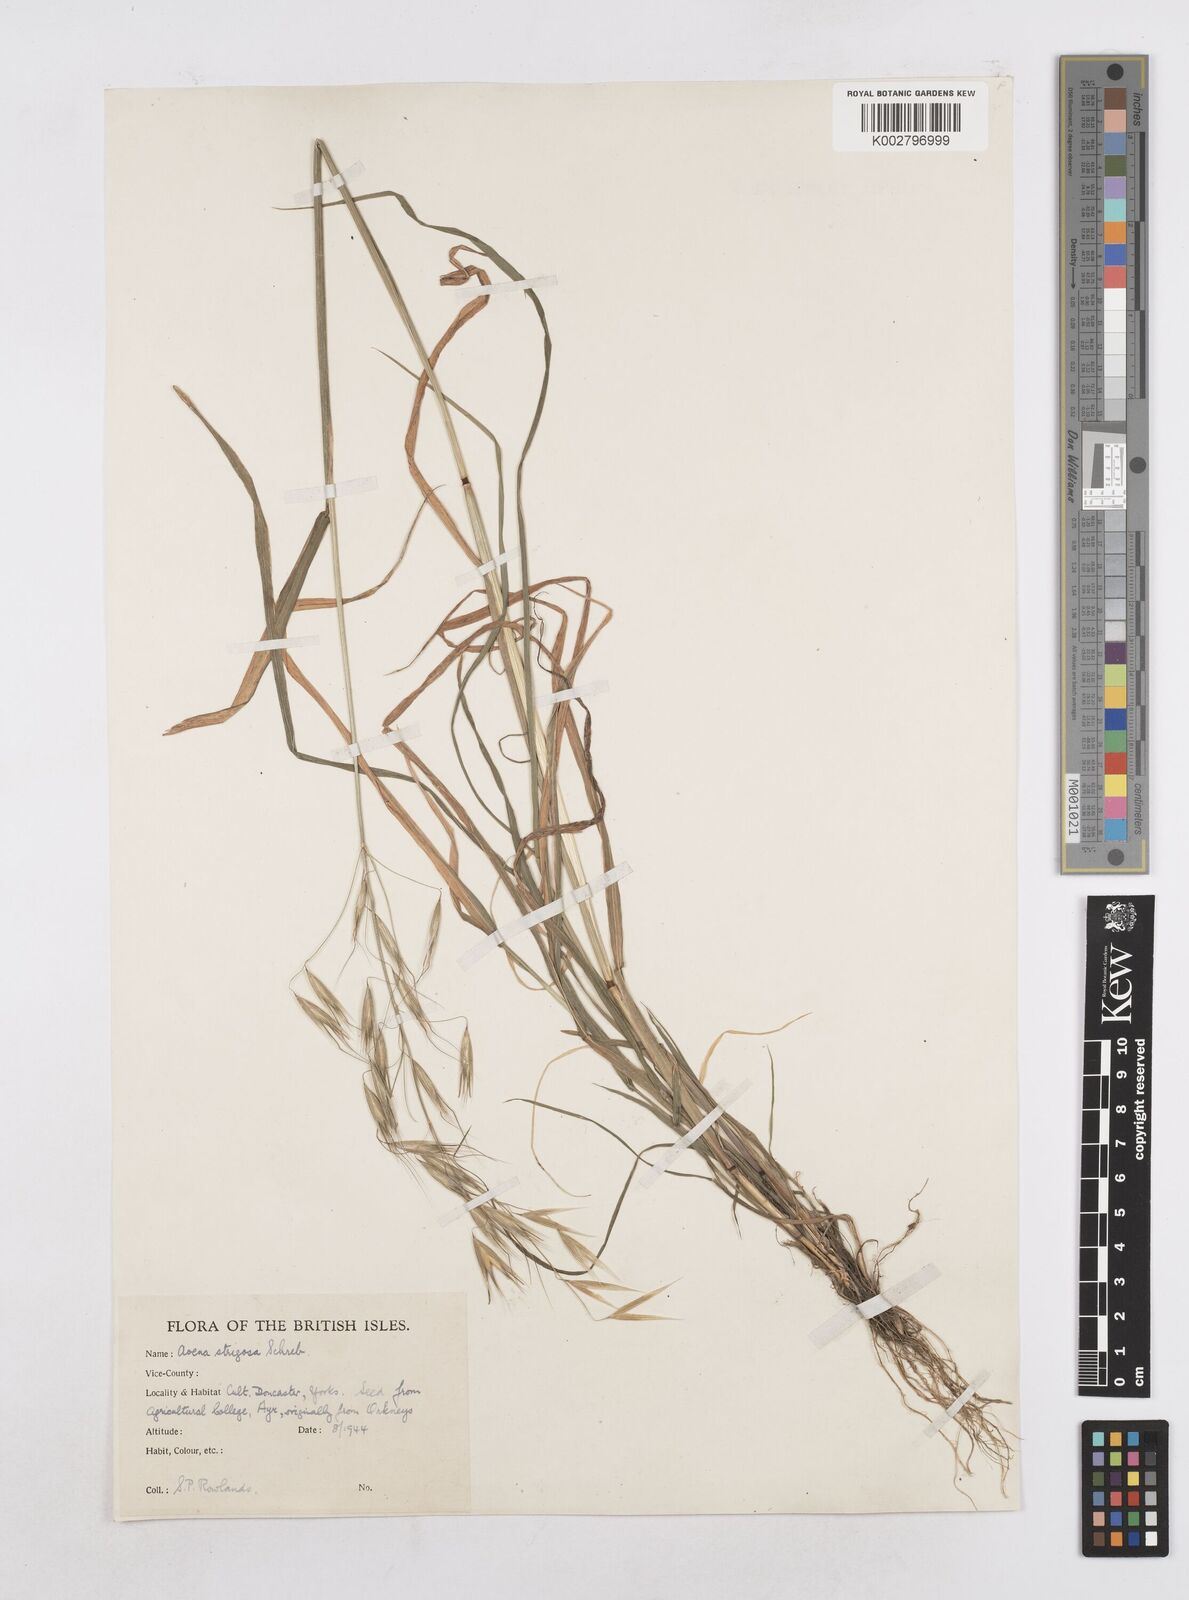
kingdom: Plantae
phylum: Tracheophyta
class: Liliopsida
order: Poales
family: Poaceae
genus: Avena
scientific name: Avena strigosa
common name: Bristle oat
